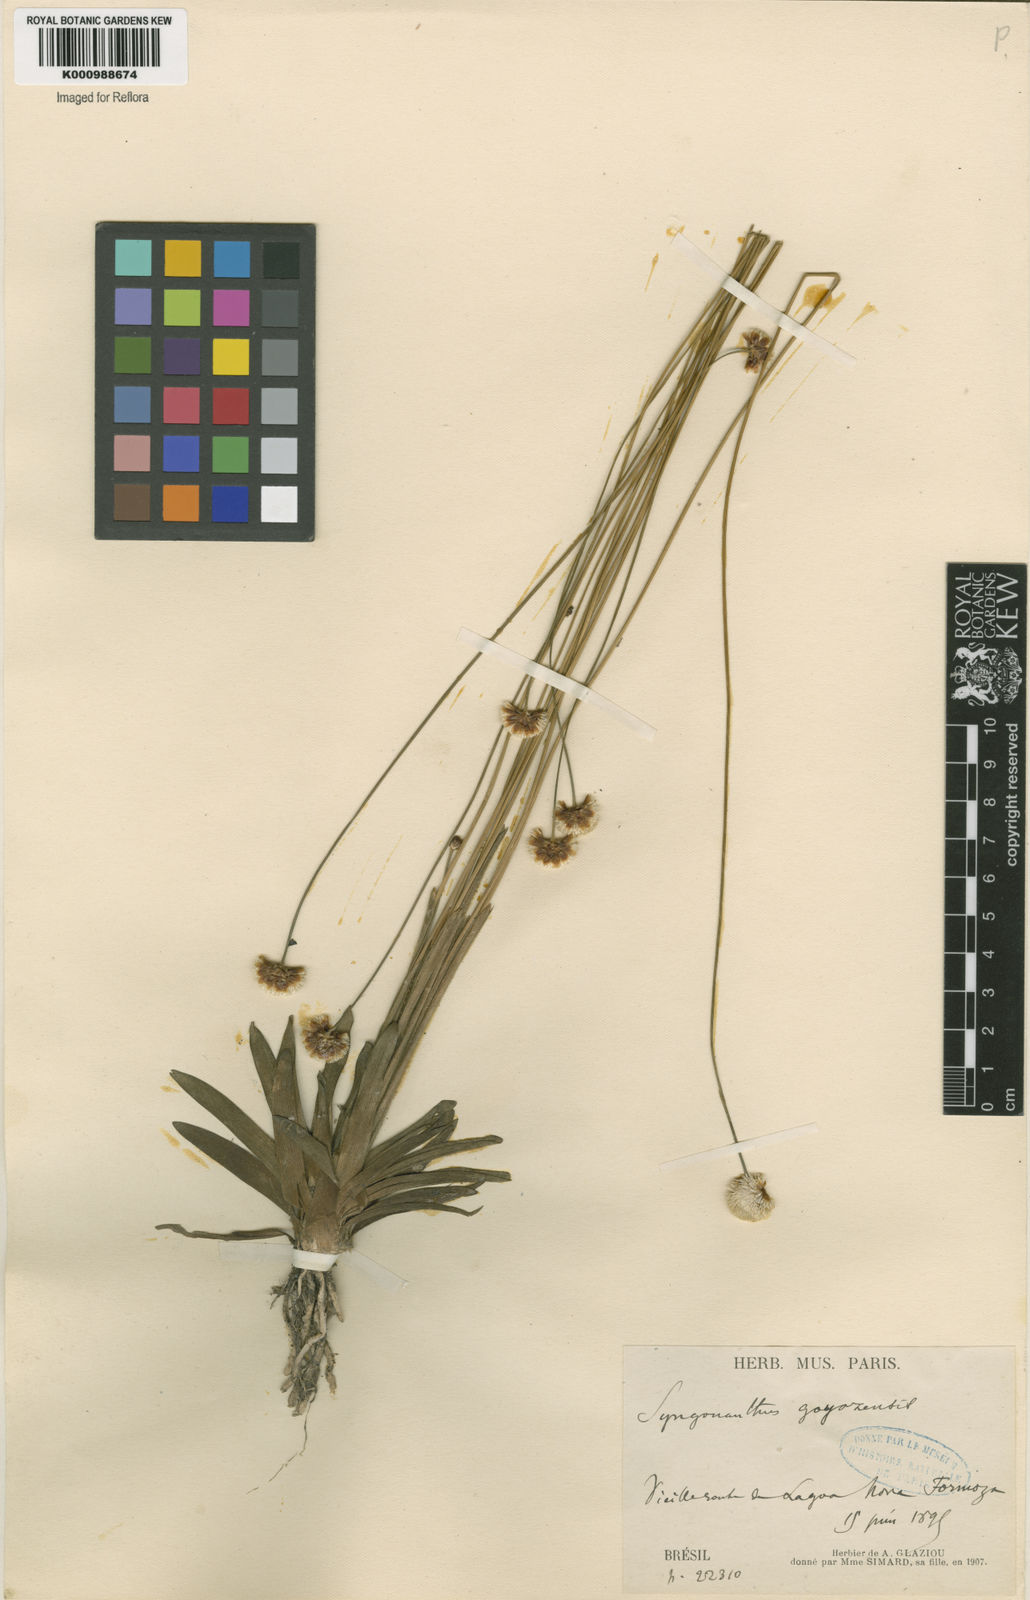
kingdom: Plantae
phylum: Tracheophyta
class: Liliopsida
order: Poales
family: Eriocaulaceae
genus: Syngonanthus
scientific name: Syngonanthus
